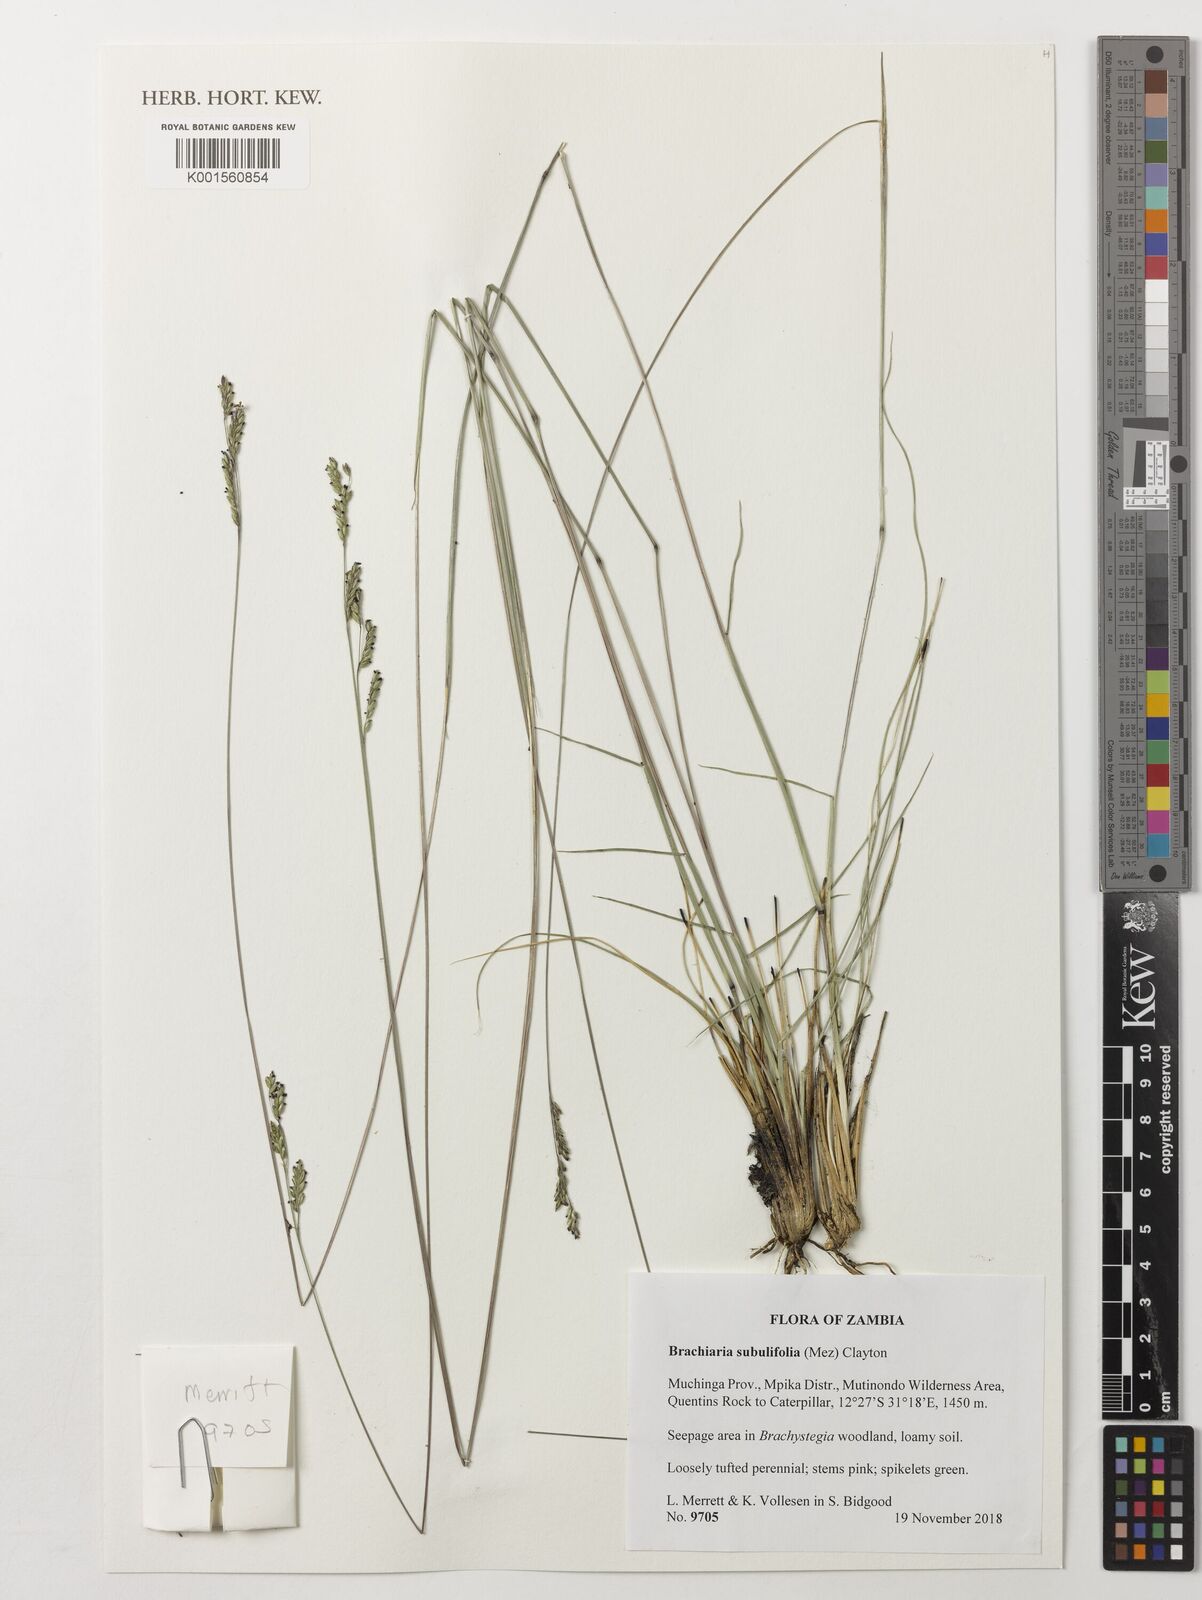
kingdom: Plantae
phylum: Tracheophyta
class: Liliopsida
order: Poales
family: Poaceae
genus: Urochloa
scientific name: Urochloa subulifolia
